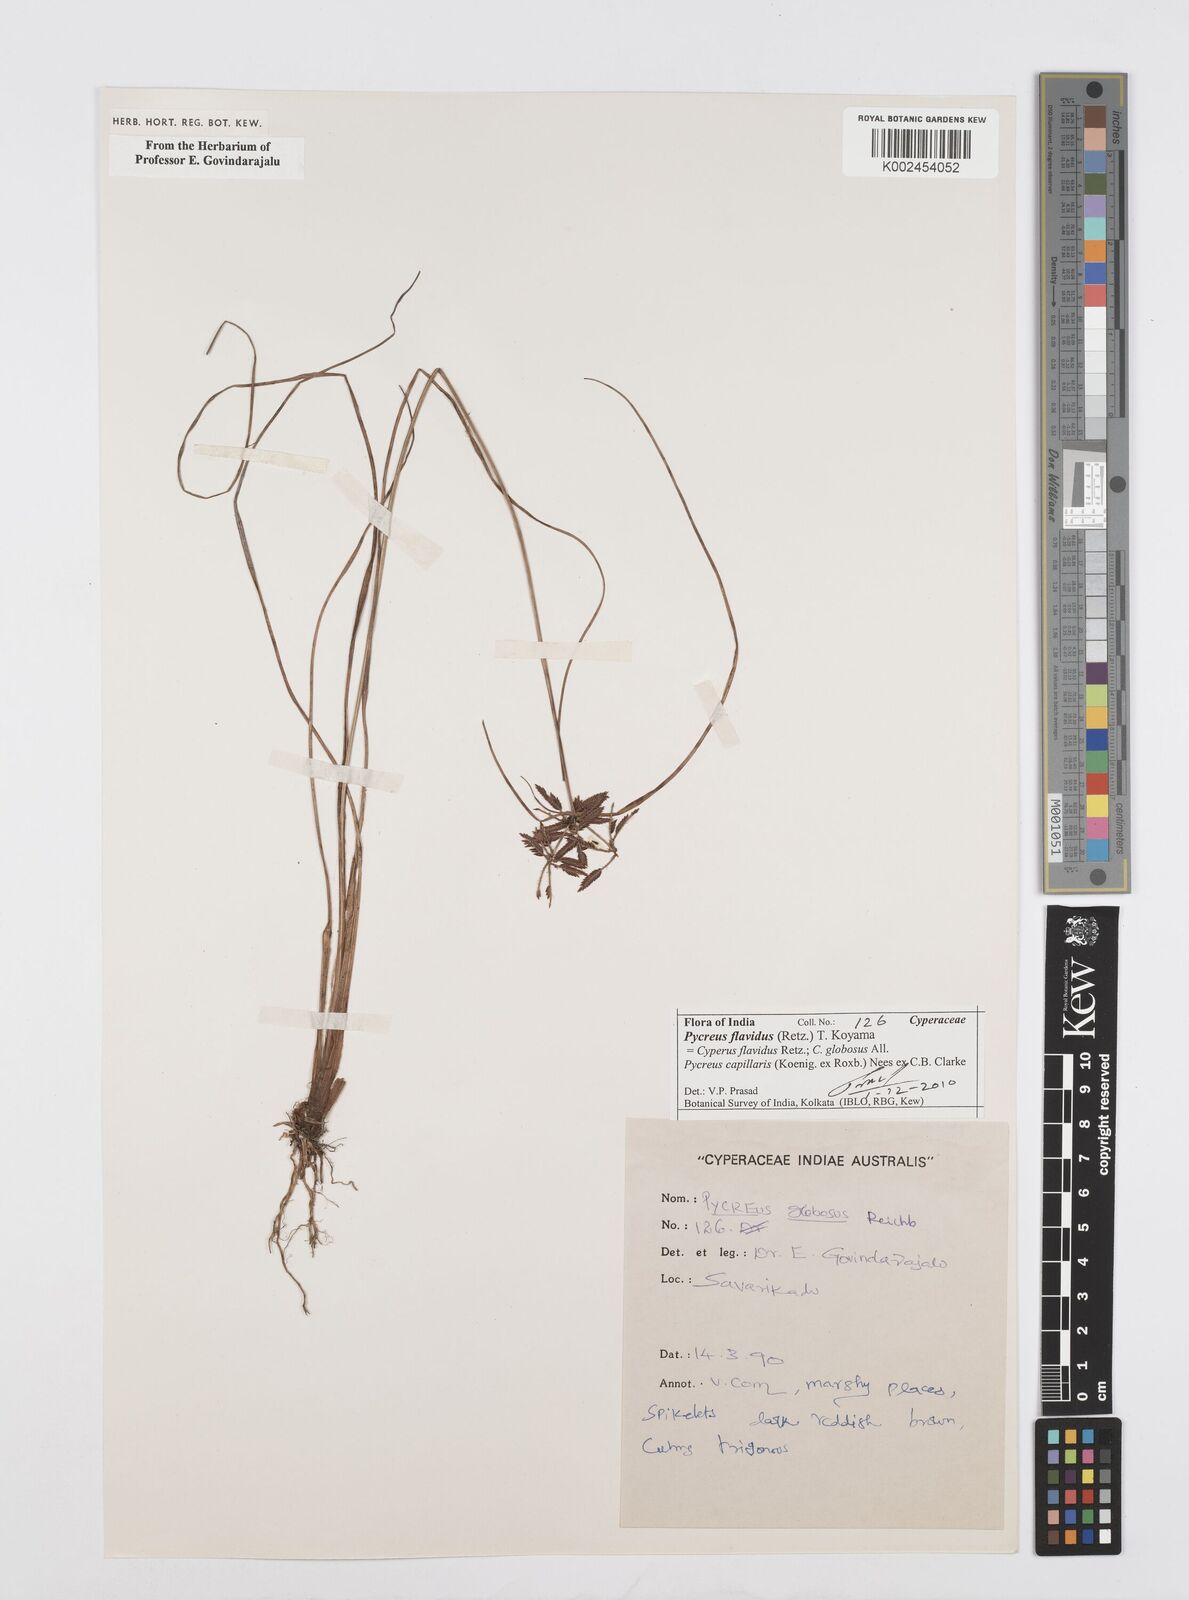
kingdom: Plantae
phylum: Tracheophyta
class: Liliopsida
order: Poales
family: Cyperaceae
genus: Cyperus
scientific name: Cyperus flavidus
